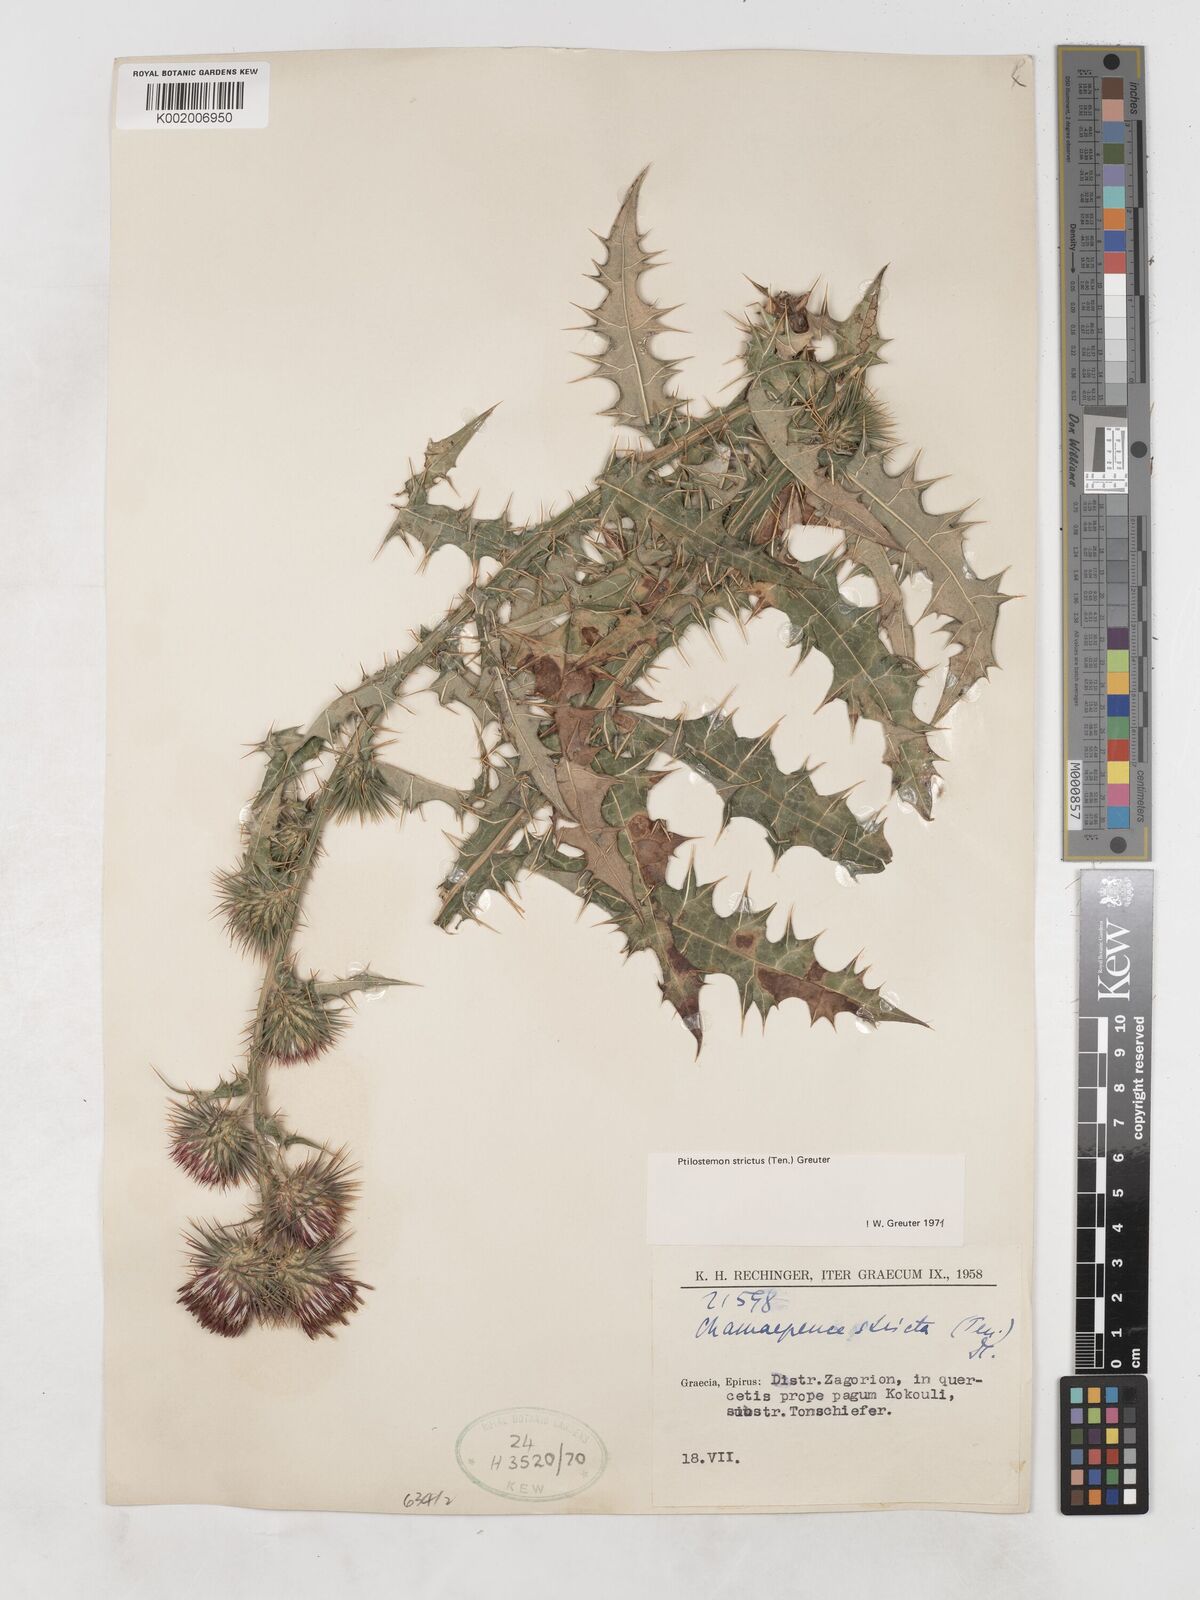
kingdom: Plantae
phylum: Tracheophyta
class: Magnoliopsida
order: Asterales
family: Asteraceae
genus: Ptilostemon
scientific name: Ptilostemon strictus
